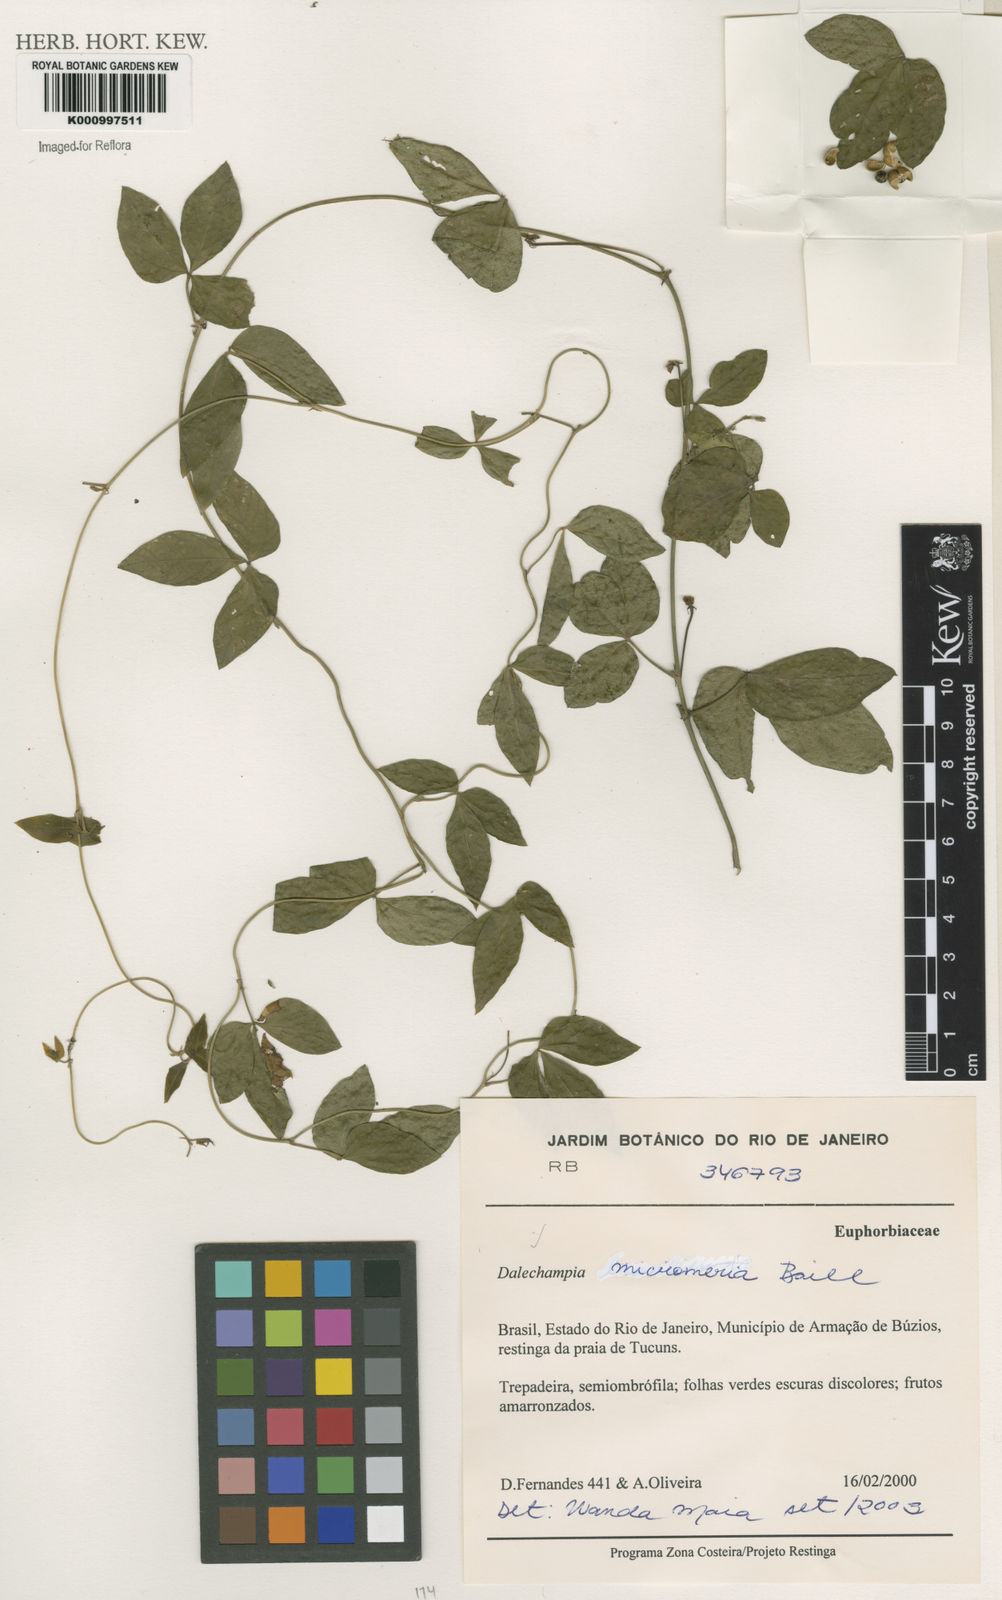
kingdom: Plantae
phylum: Tracheophyta
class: Magnoliopsida
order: Malpighiales
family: Euphorbiaceae
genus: Dalechampia
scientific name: Dalechampia micromeria
